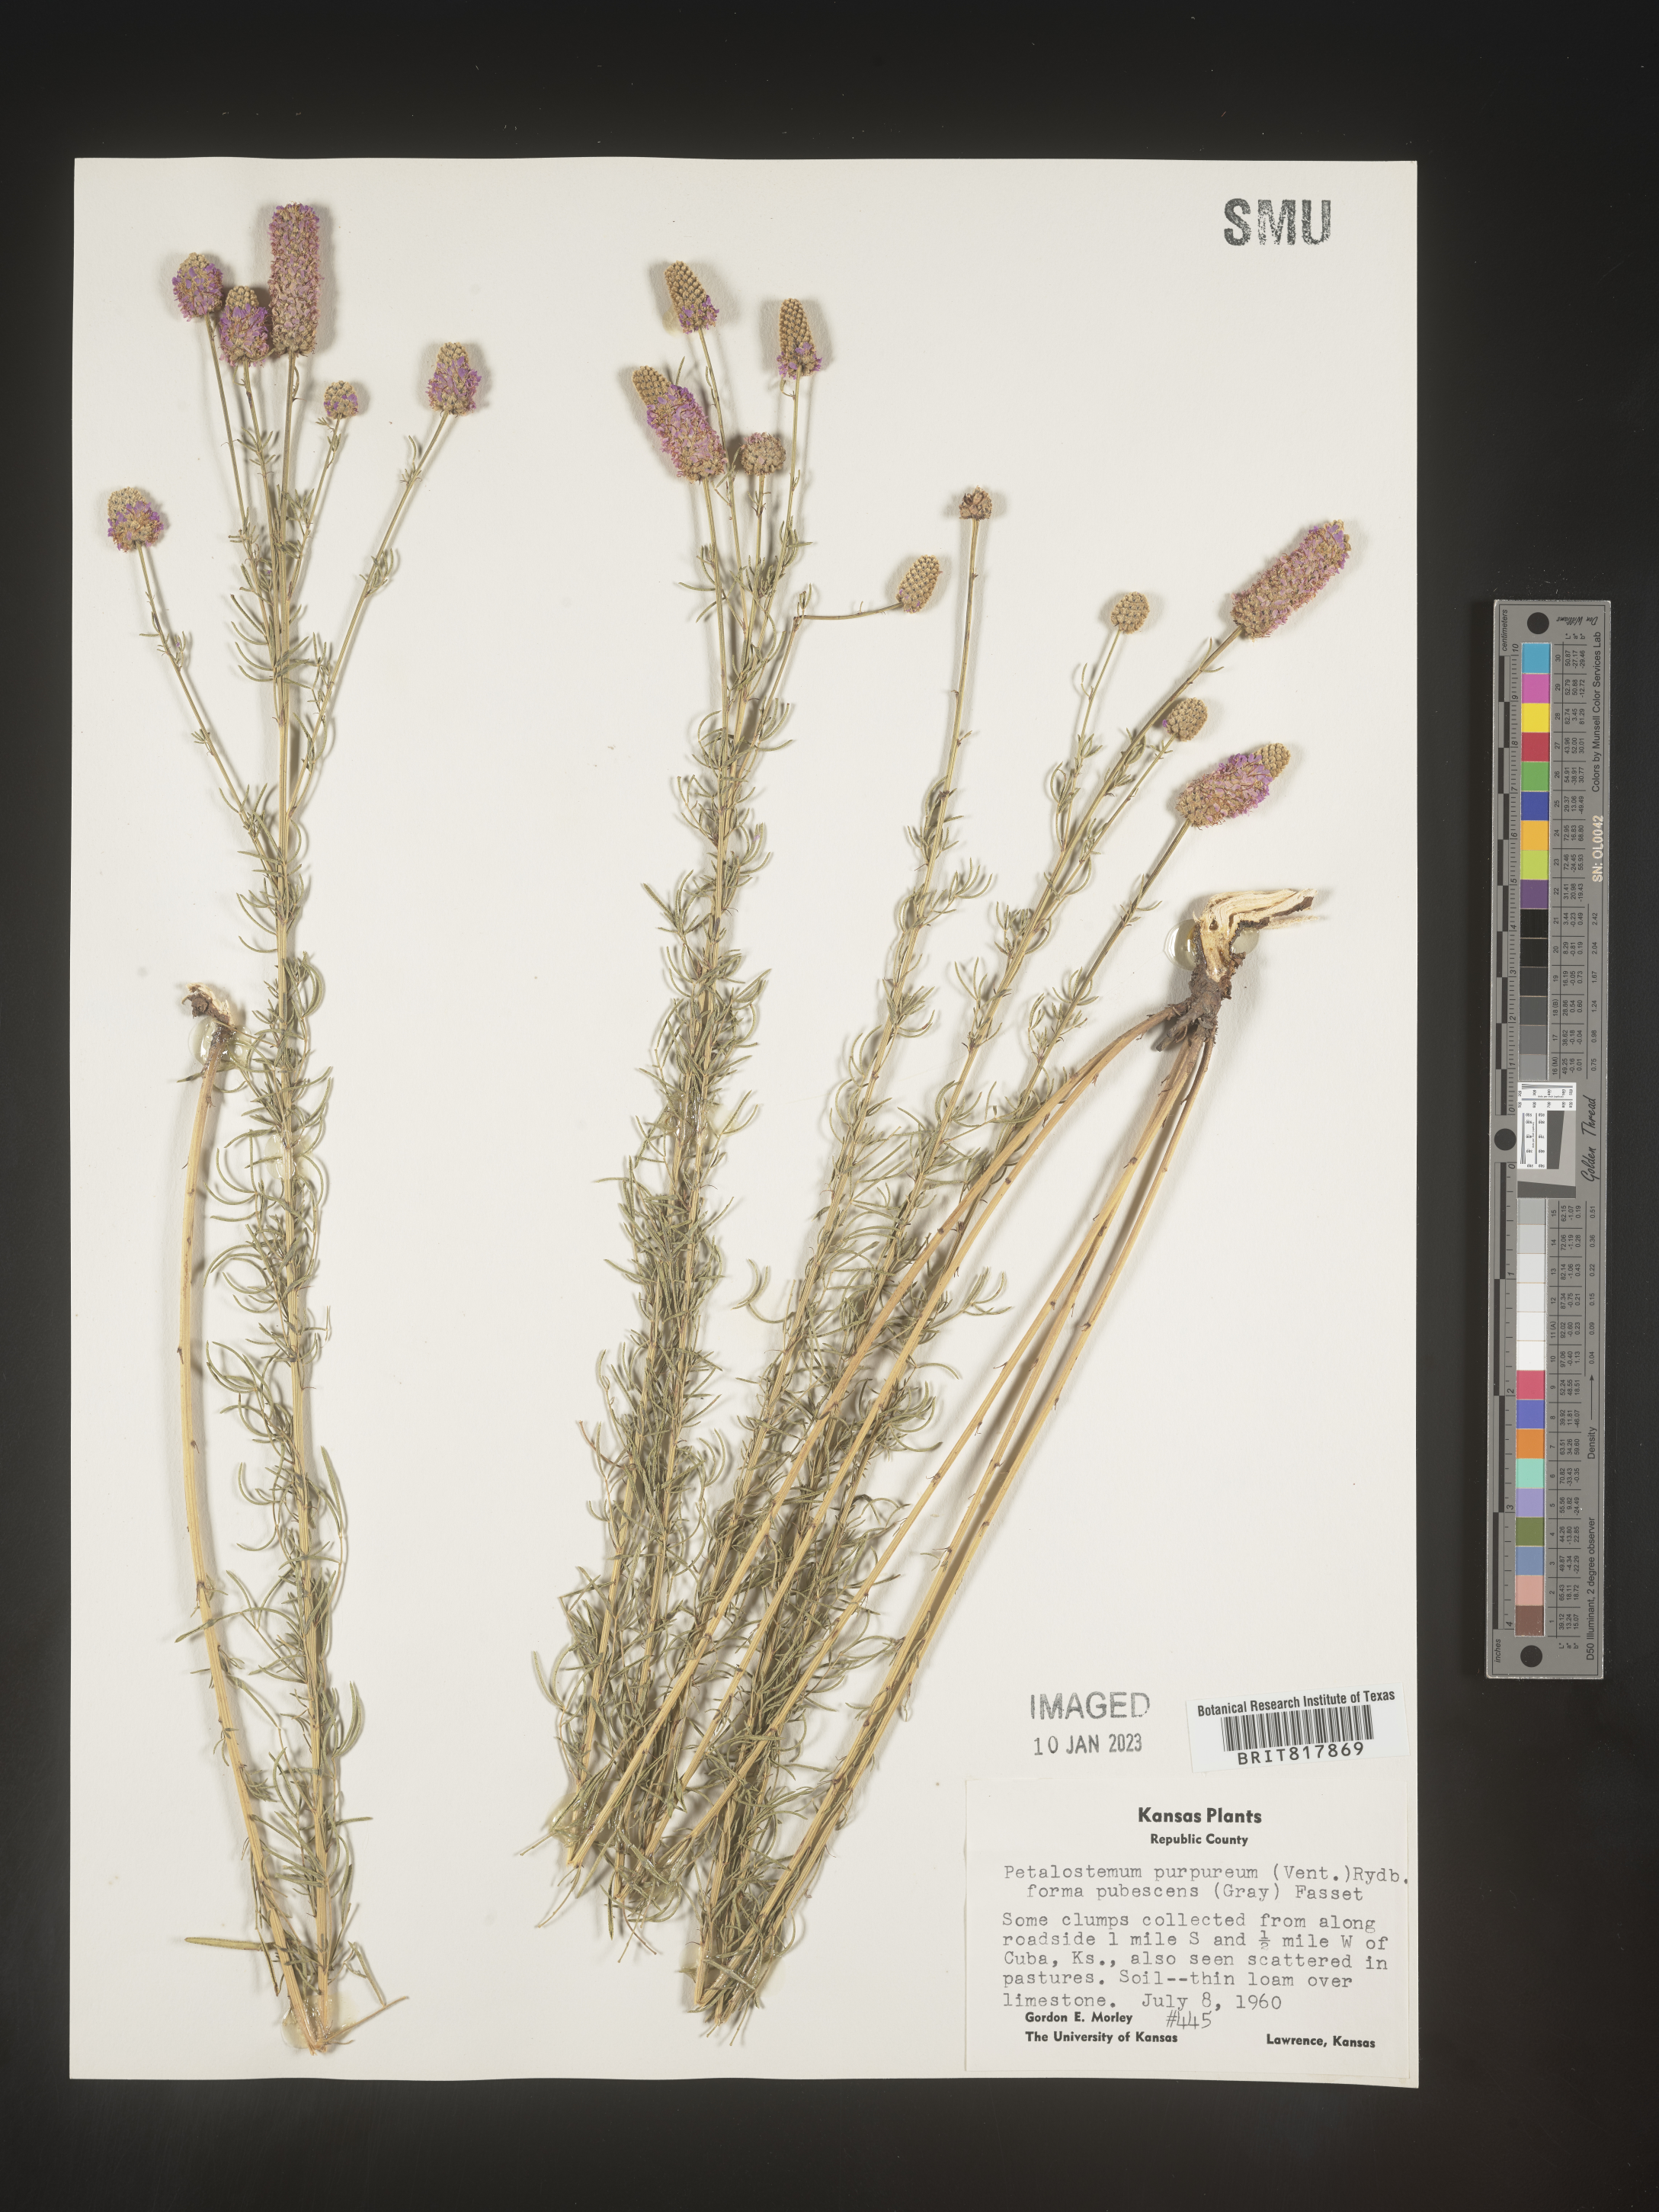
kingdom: Plantae
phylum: Tracheophyta
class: Magnoliopsida
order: Fabales
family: Fabaceae
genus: Dalea
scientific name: Dalea purpurea
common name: Purple prairie-clover
